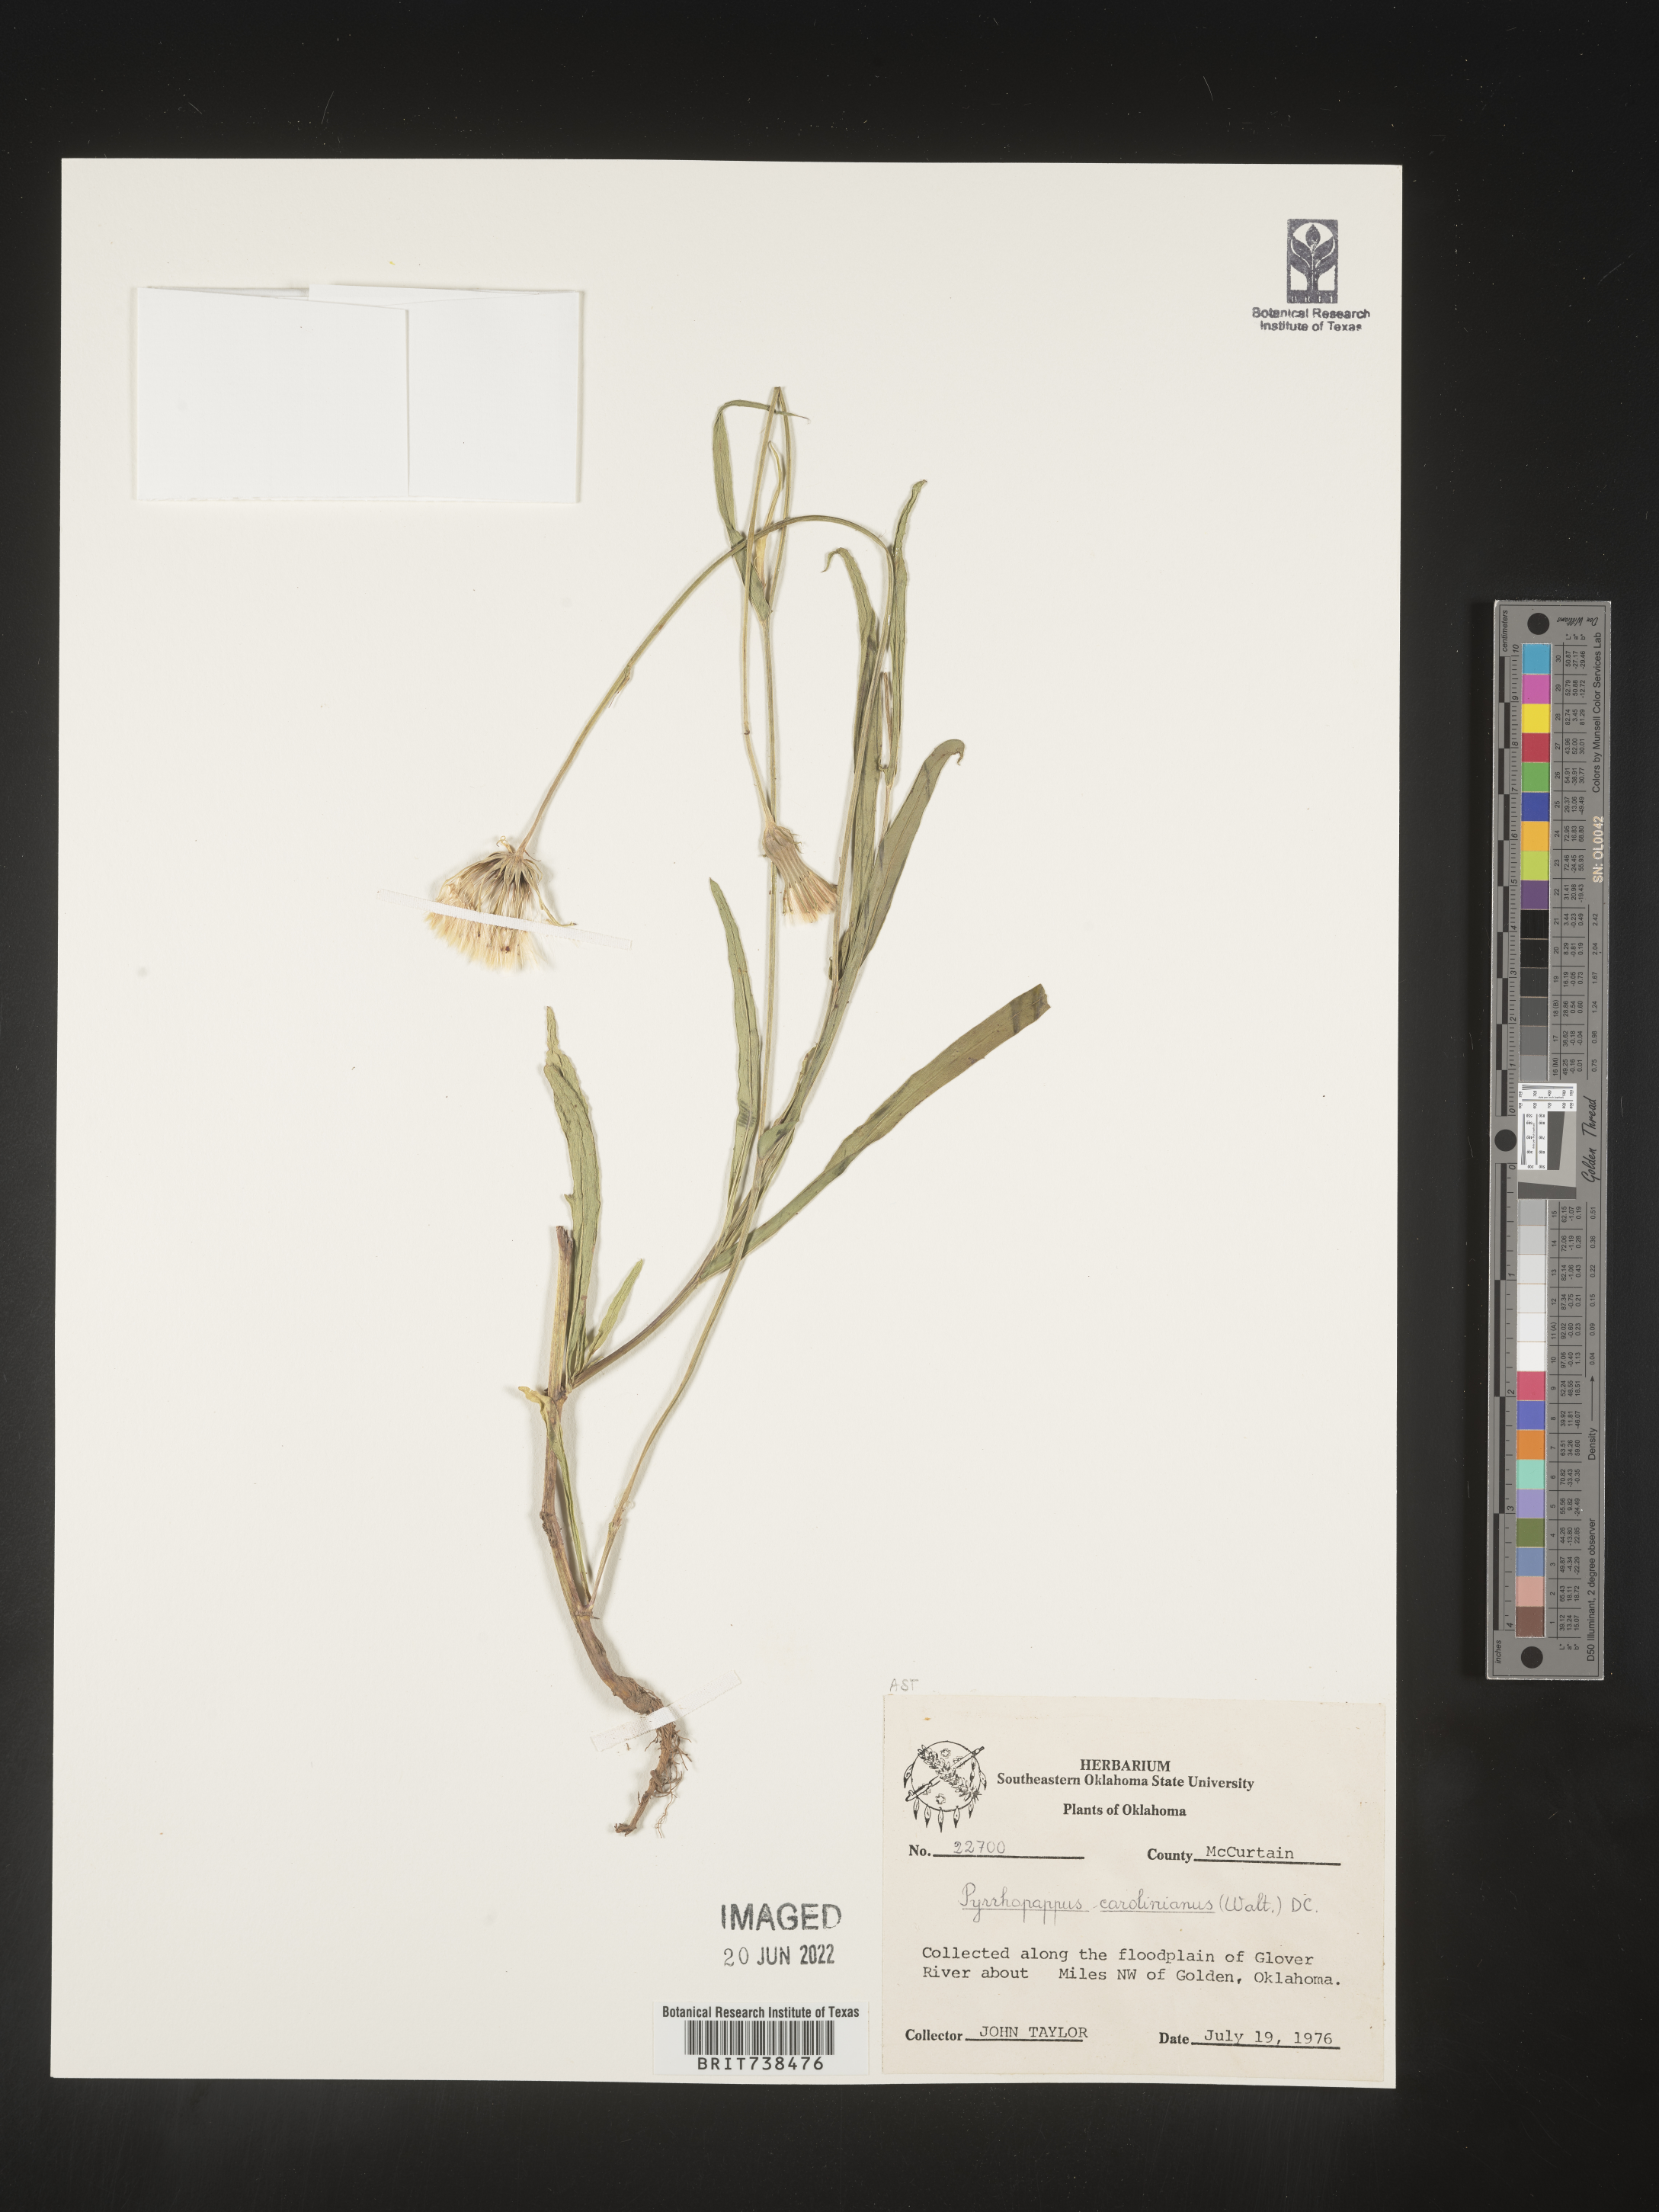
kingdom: Plantae
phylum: Tracheophyta
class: Magnoliopsida
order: Asterales
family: Asteraceae
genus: Pyrrhopappus
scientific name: Pyrrhopappus carolinianus
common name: Carolina desert-chicory
